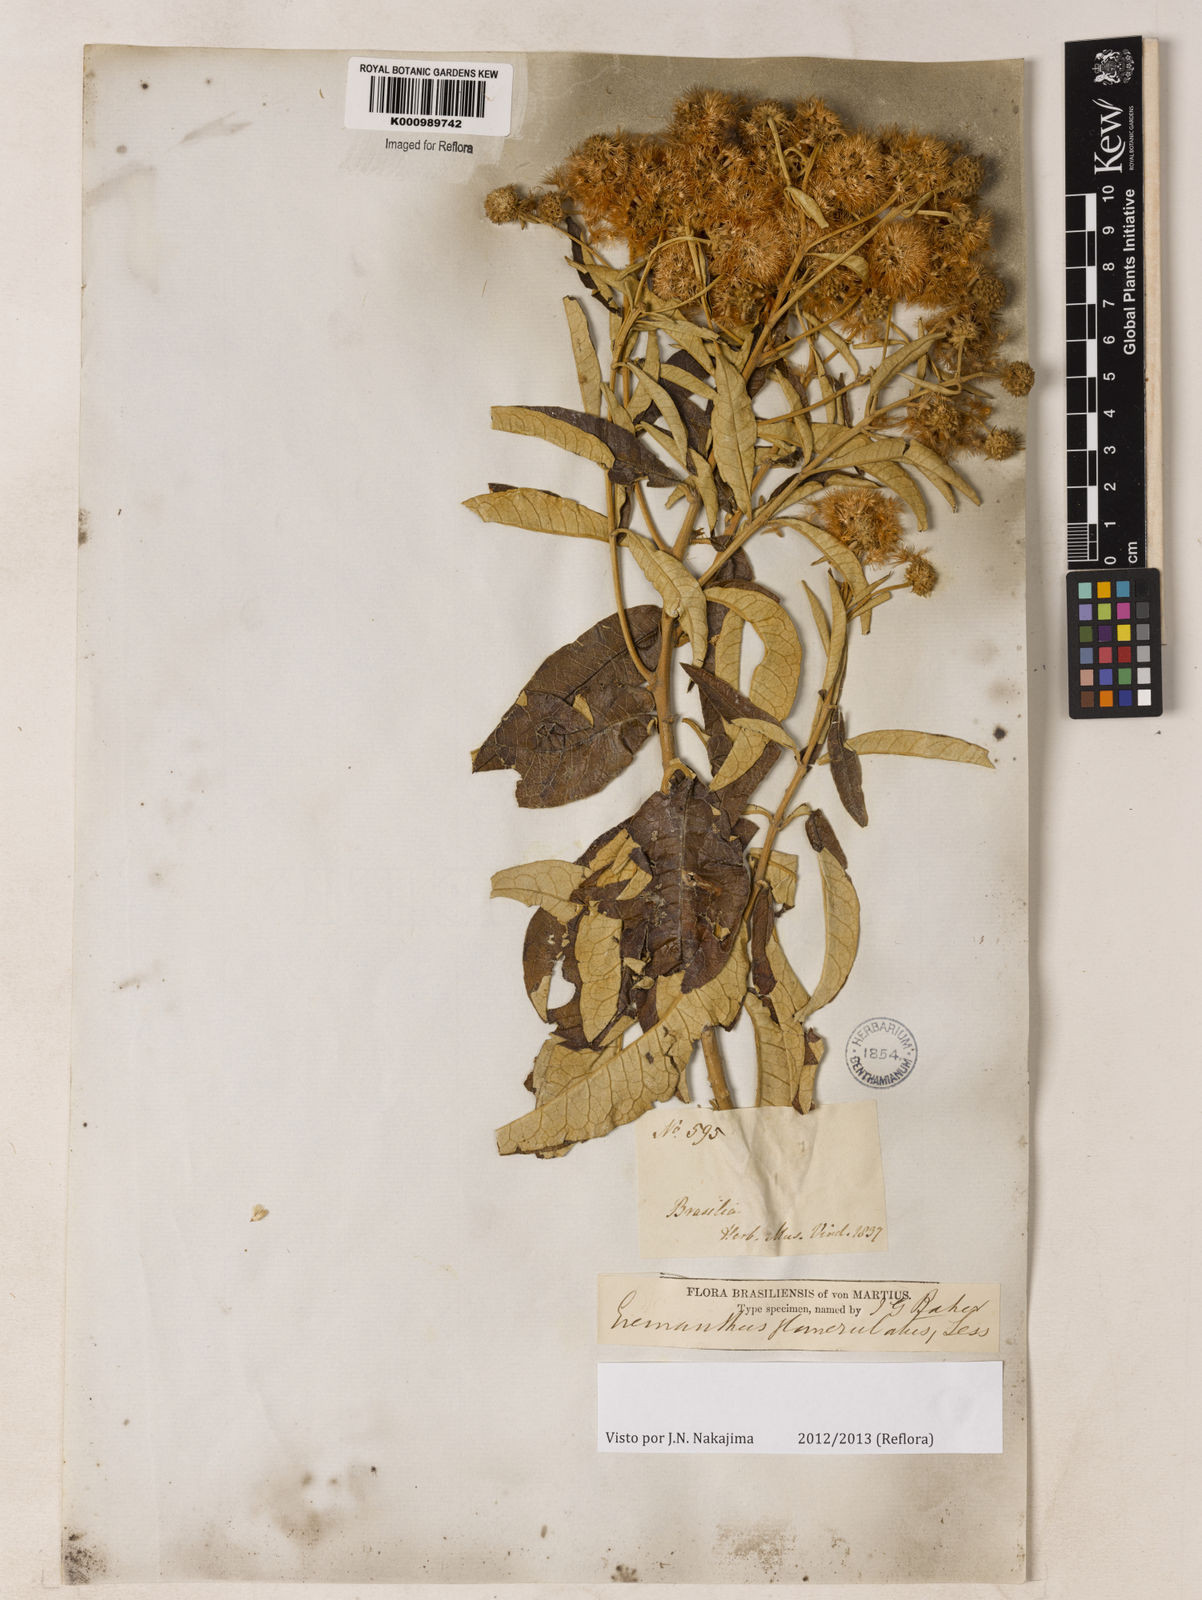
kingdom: Plantae
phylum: Tracheophyta
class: Magnoliopsida
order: Asterales
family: Asteraceae
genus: Eremanthus
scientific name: Eremanthus glomerulatus
